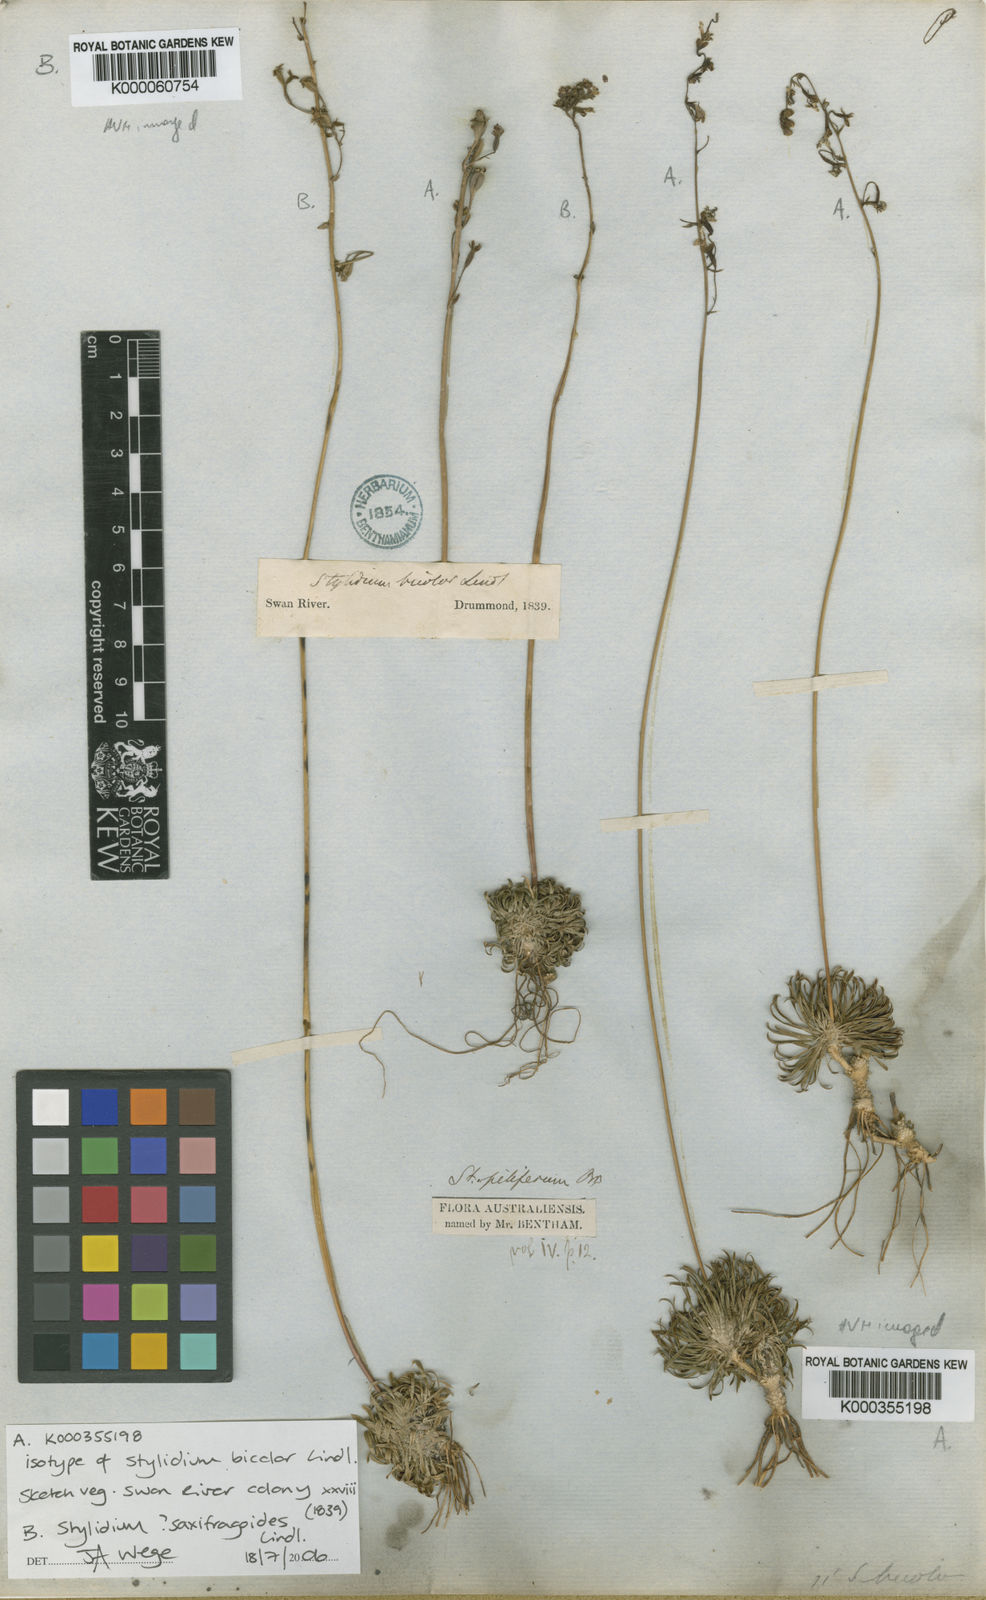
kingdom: Plantae
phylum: Tracheophyta
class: Magnoliopsida
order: Asterales
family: Stylidiaceae
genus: Stylidium
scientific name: Stylidium bicolor
